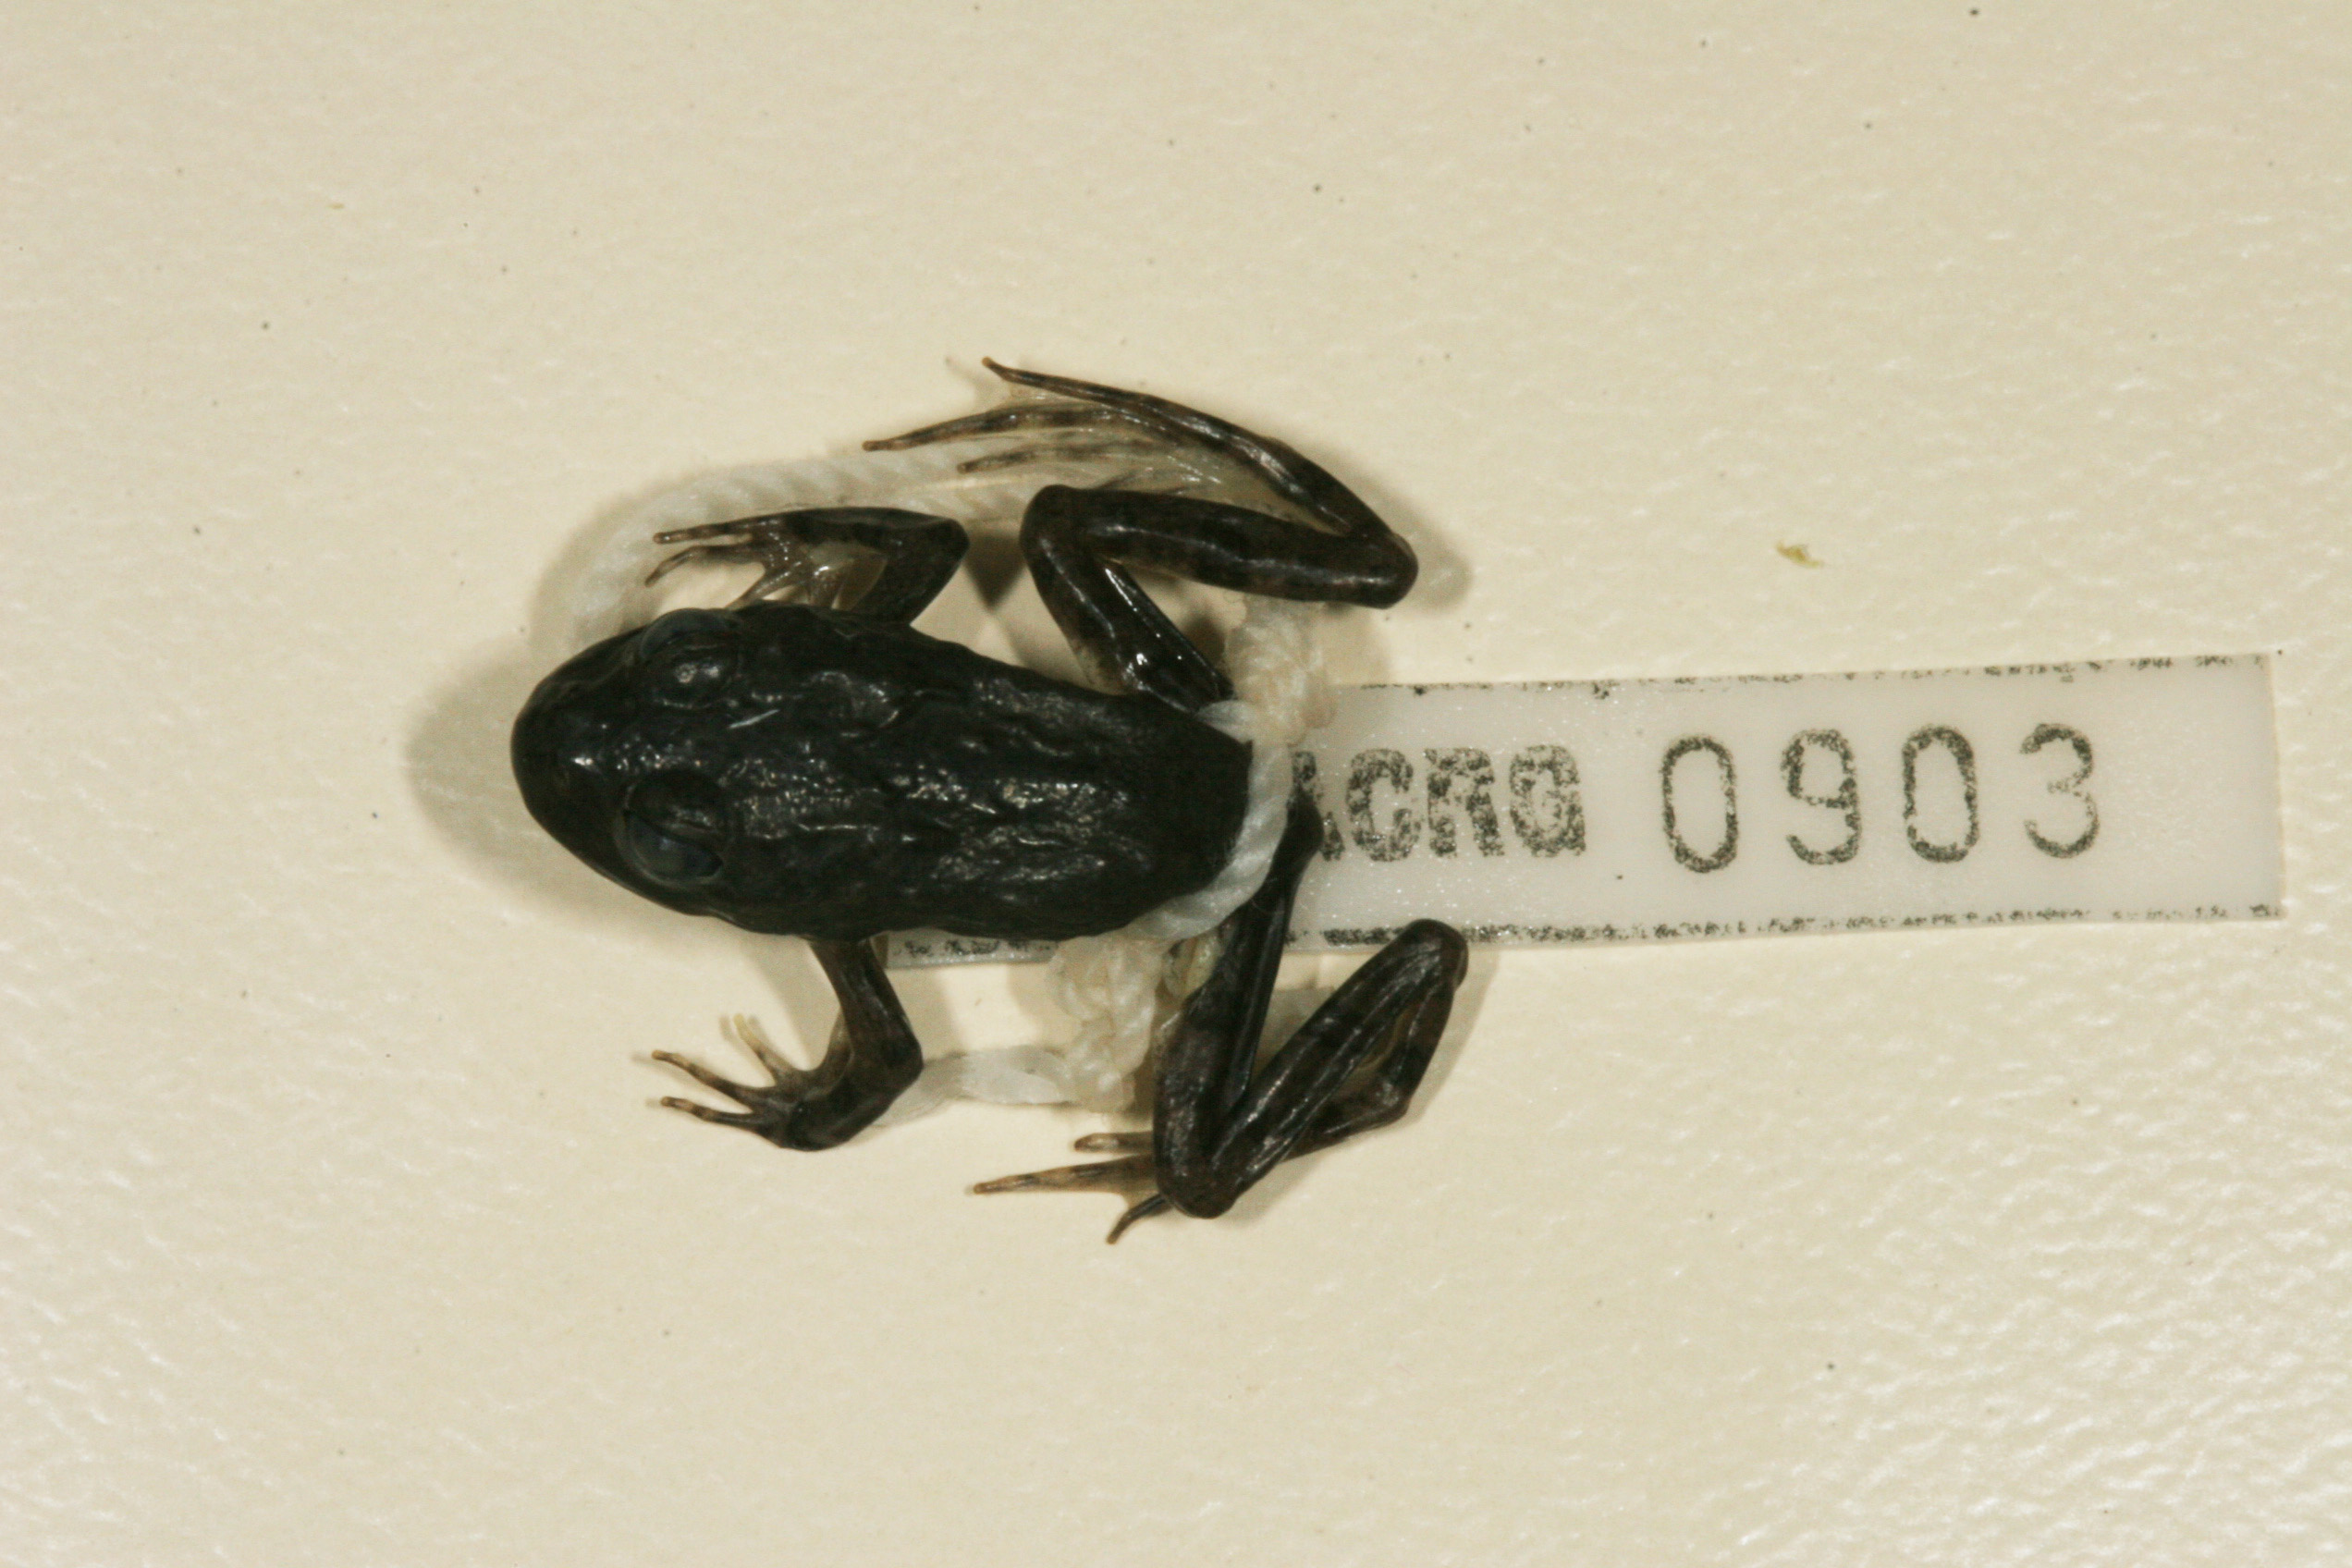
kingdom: Animalia
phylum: Chordata
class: Amphibia
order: Anura
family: Pyxicephalidae
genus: Amietia
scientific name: Amietia vertebralis
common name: Drakensberg stream frog
